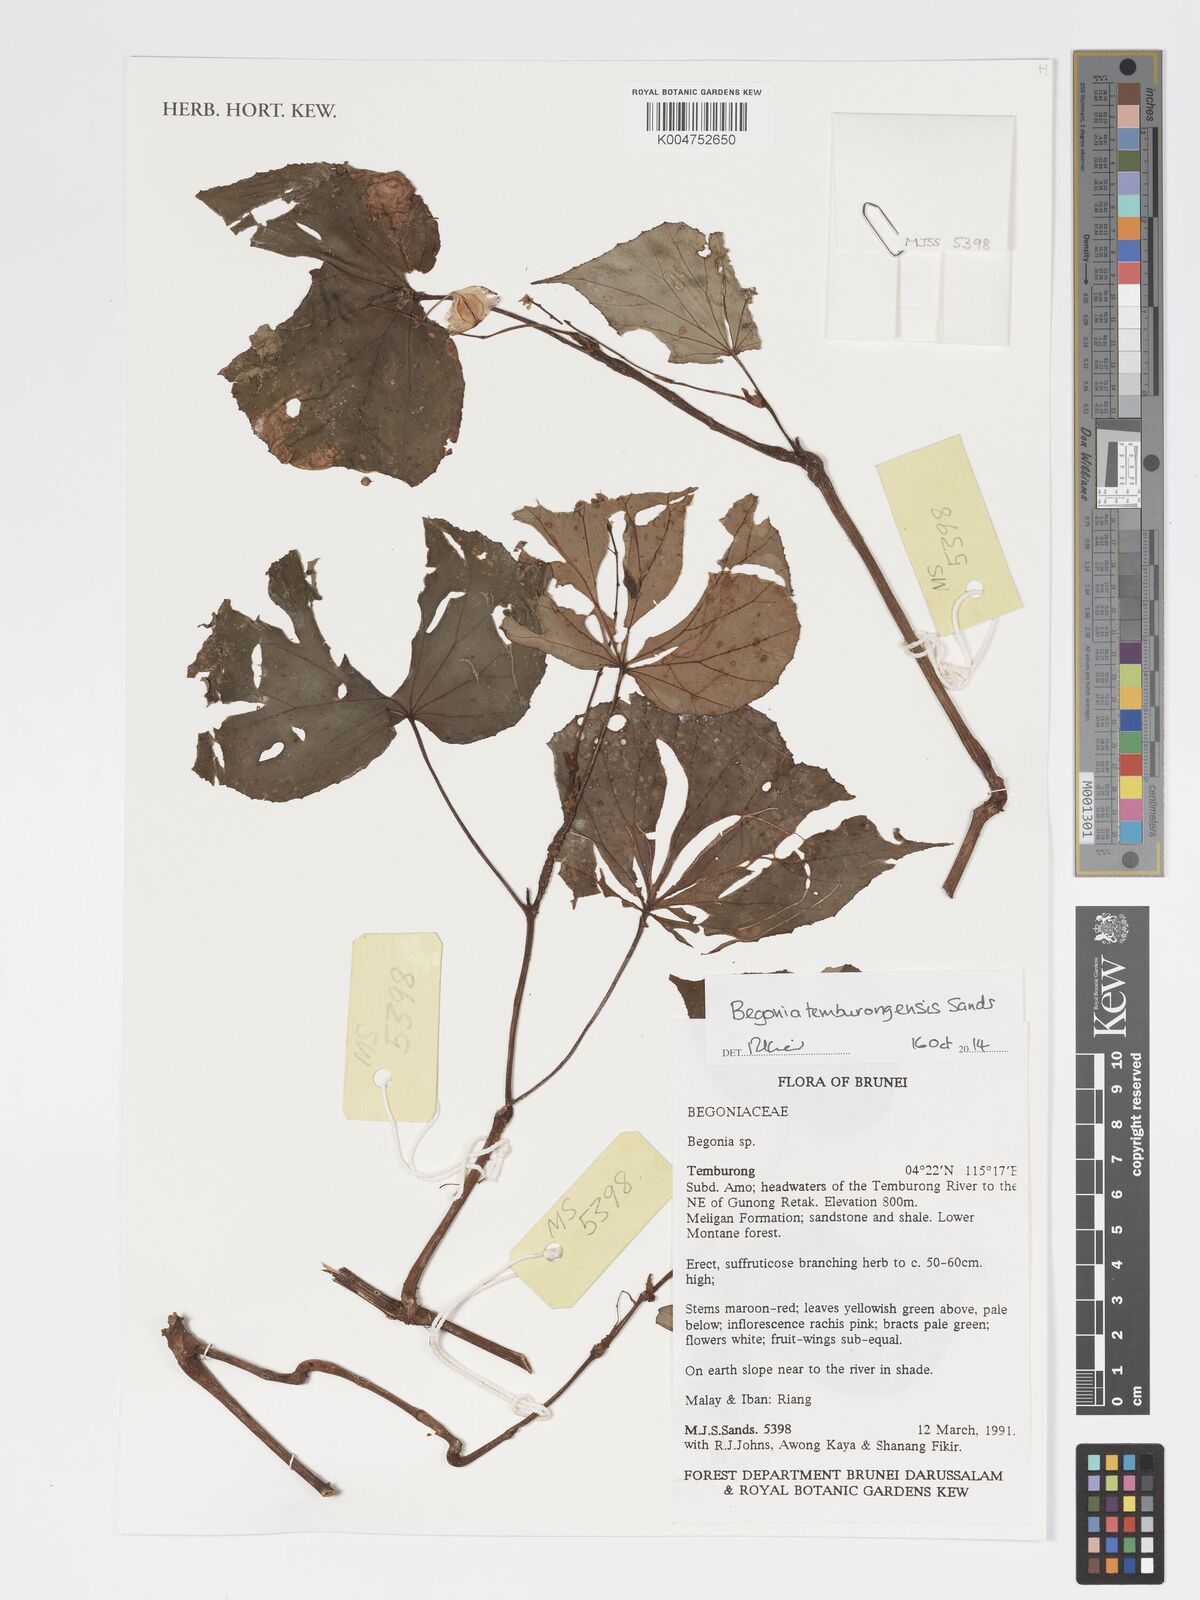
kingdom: Plantae
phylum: Tracheophyta
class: Magnoliopsida
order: Cucurbitales
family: Begoniaceae
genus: Begonia
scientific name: Begonia temburongensis
